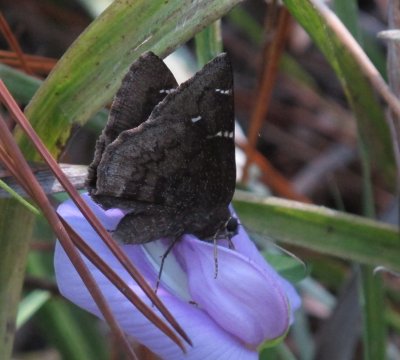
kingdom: Animalia
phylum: Arthropoda
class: Insecta
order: Lepidoptera
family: Hesperiidae
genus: Autochton
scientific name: Autochton
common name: Northern Cloudywing
